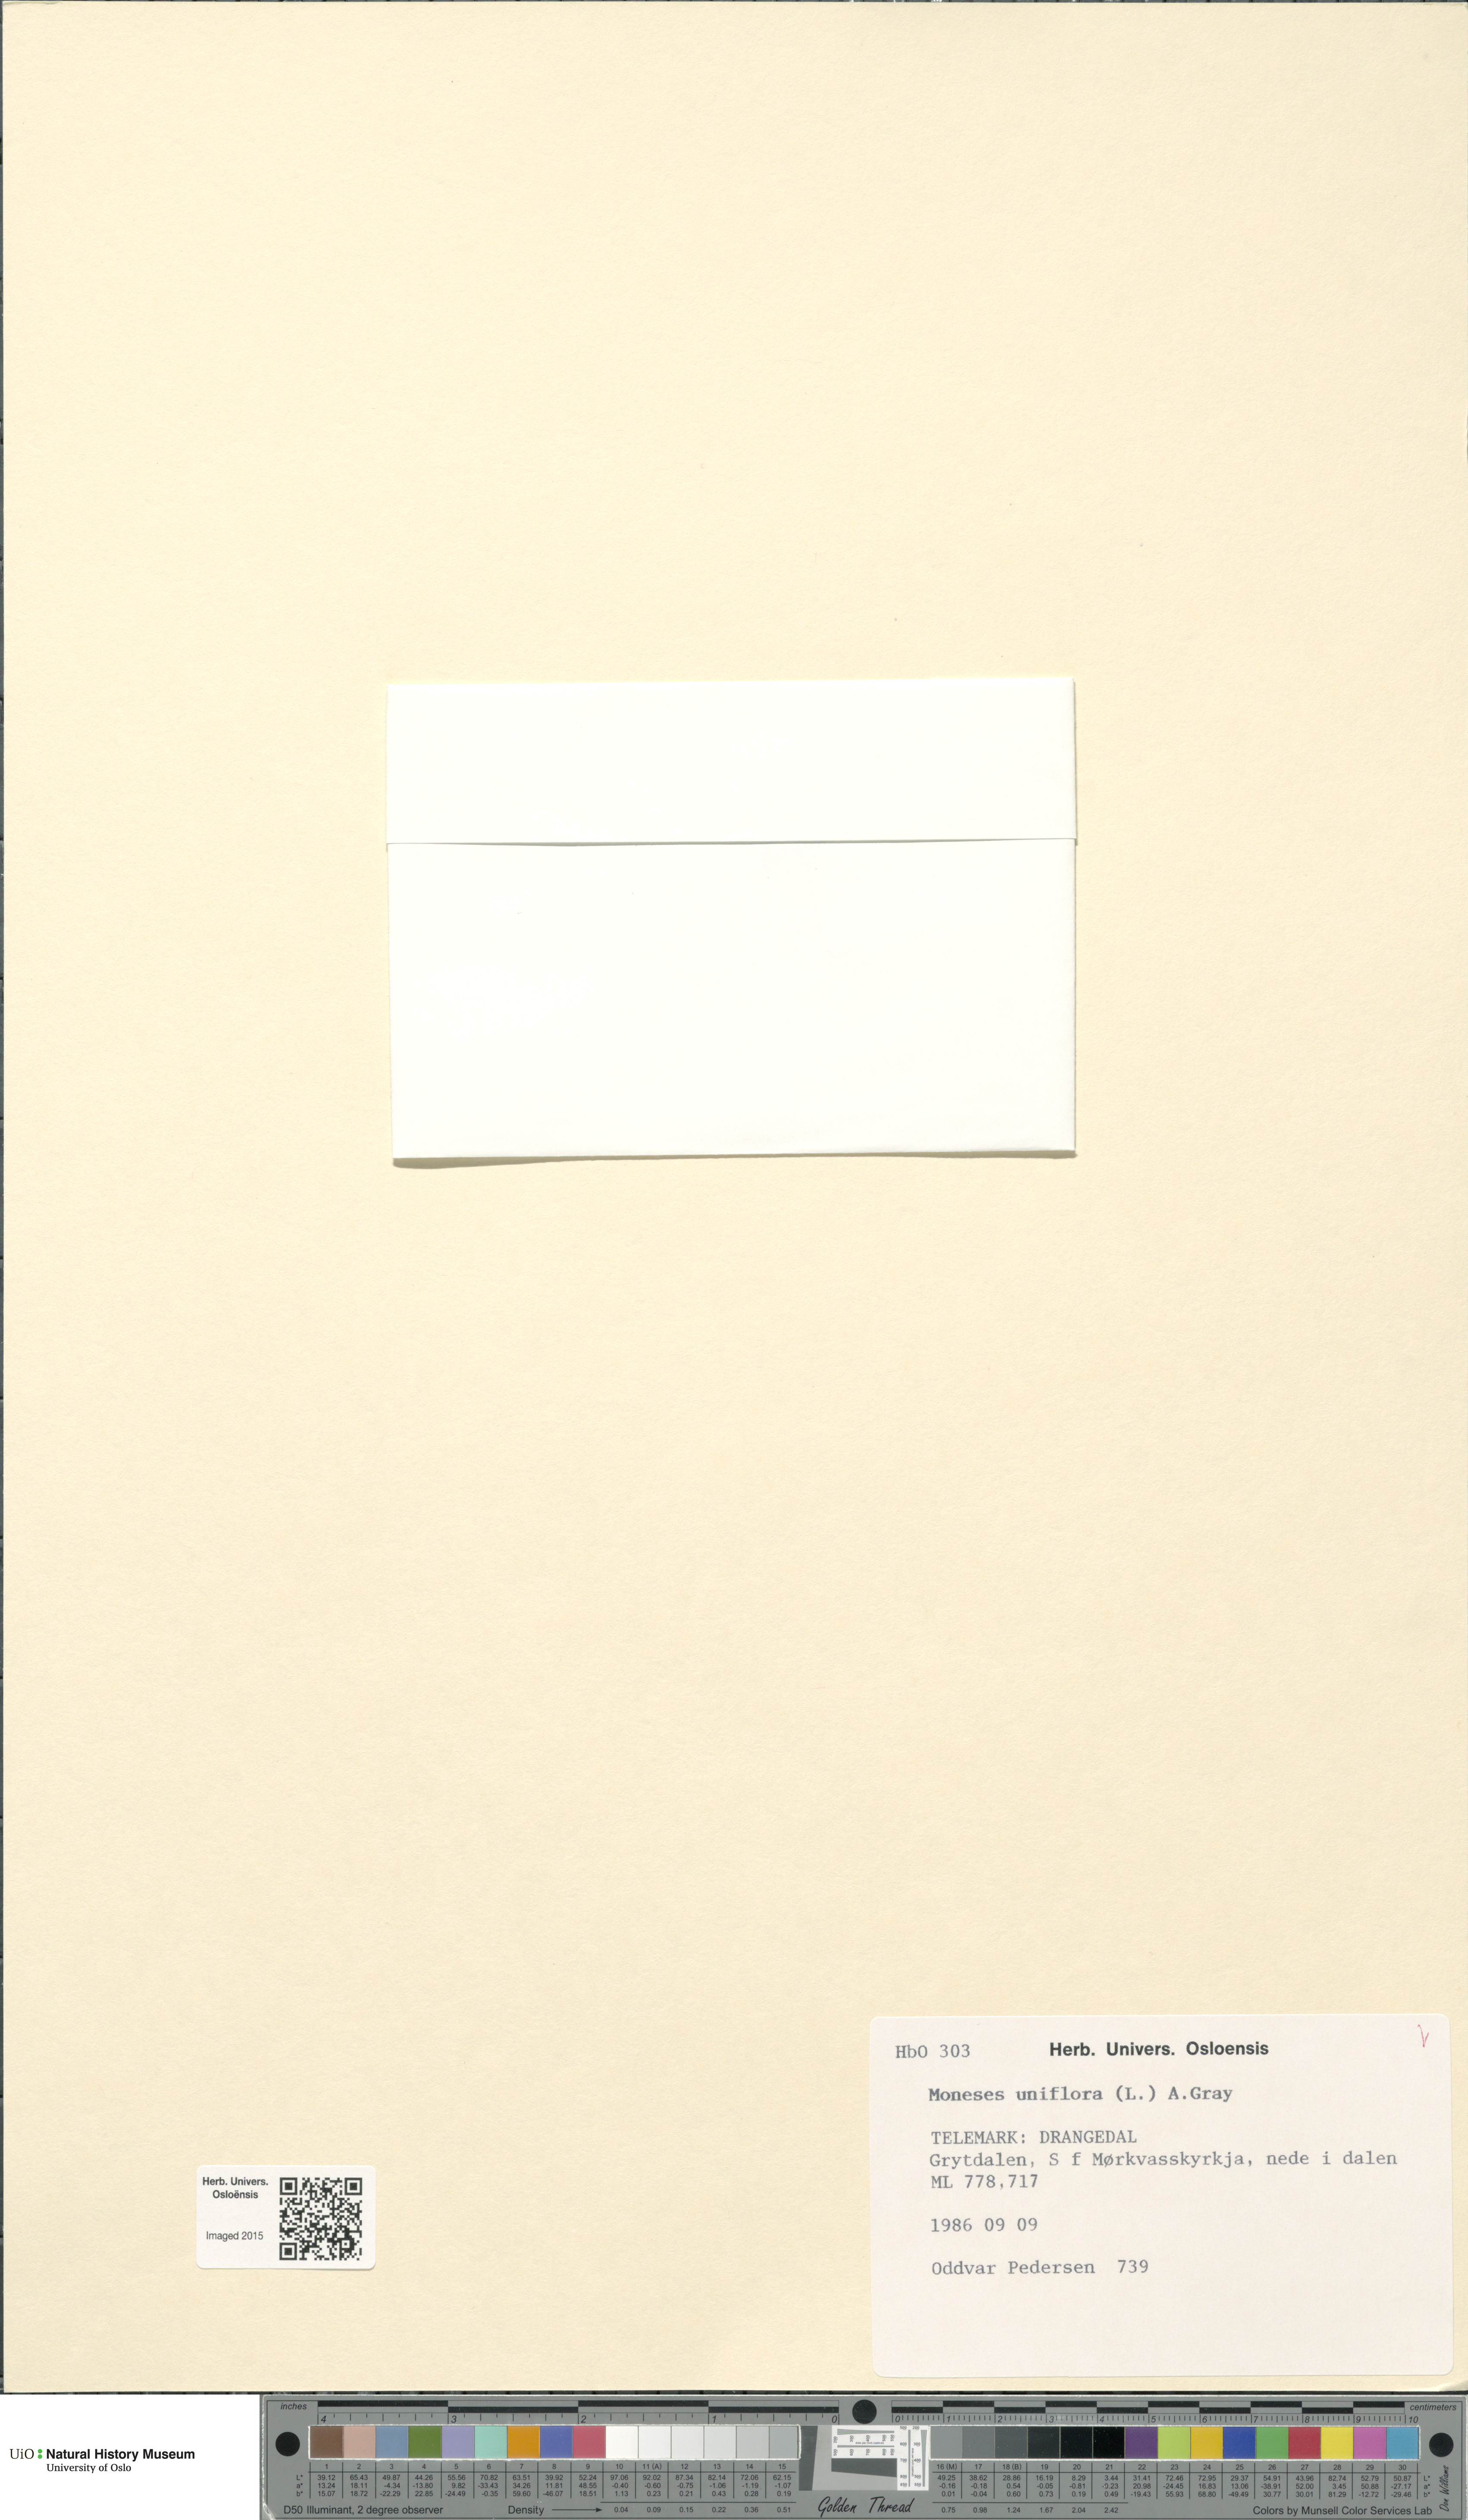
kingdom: Plantae
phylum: Tracheophyta
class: Magnoliopsida
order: Ericales
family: Ericaceae
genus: Moneses
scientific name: Moneses uniflora
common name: One-flowered wintergreen
